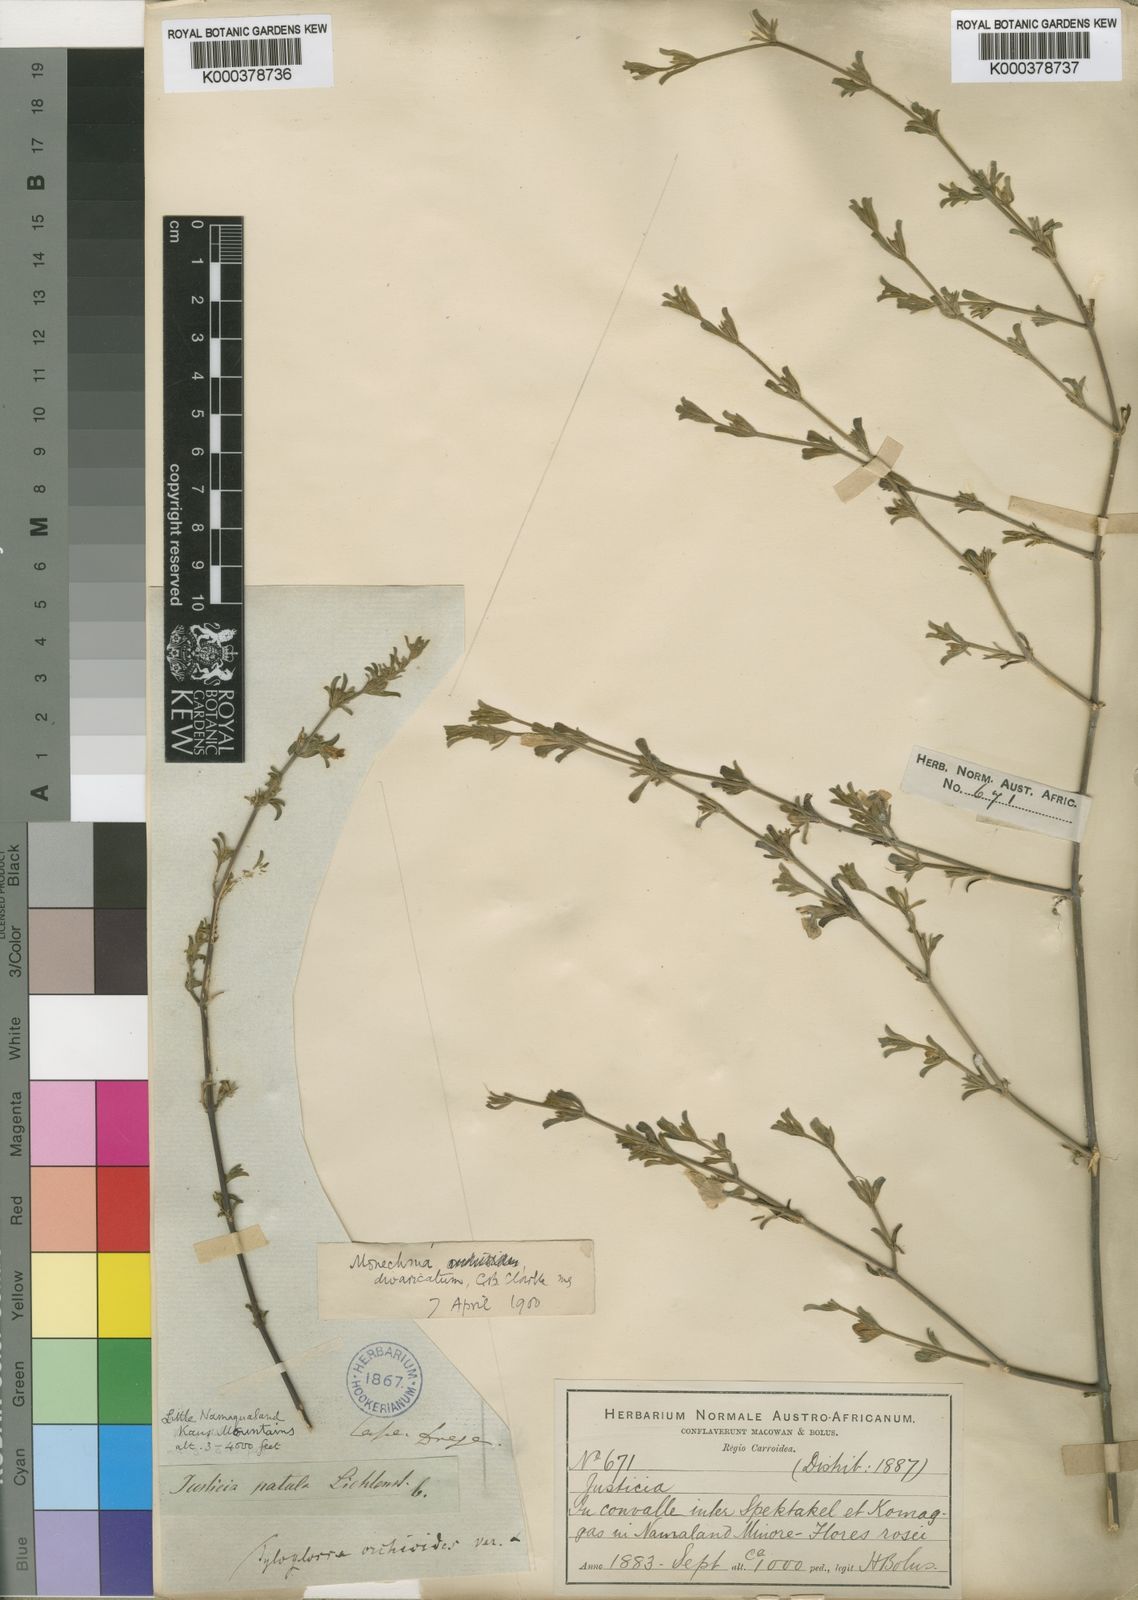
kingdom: Plantae
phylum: Tracheophyta
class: Magnoliopsida
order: Lamiales
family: Acanthaceae
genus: Monechma
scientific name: Monechma divaricatum
